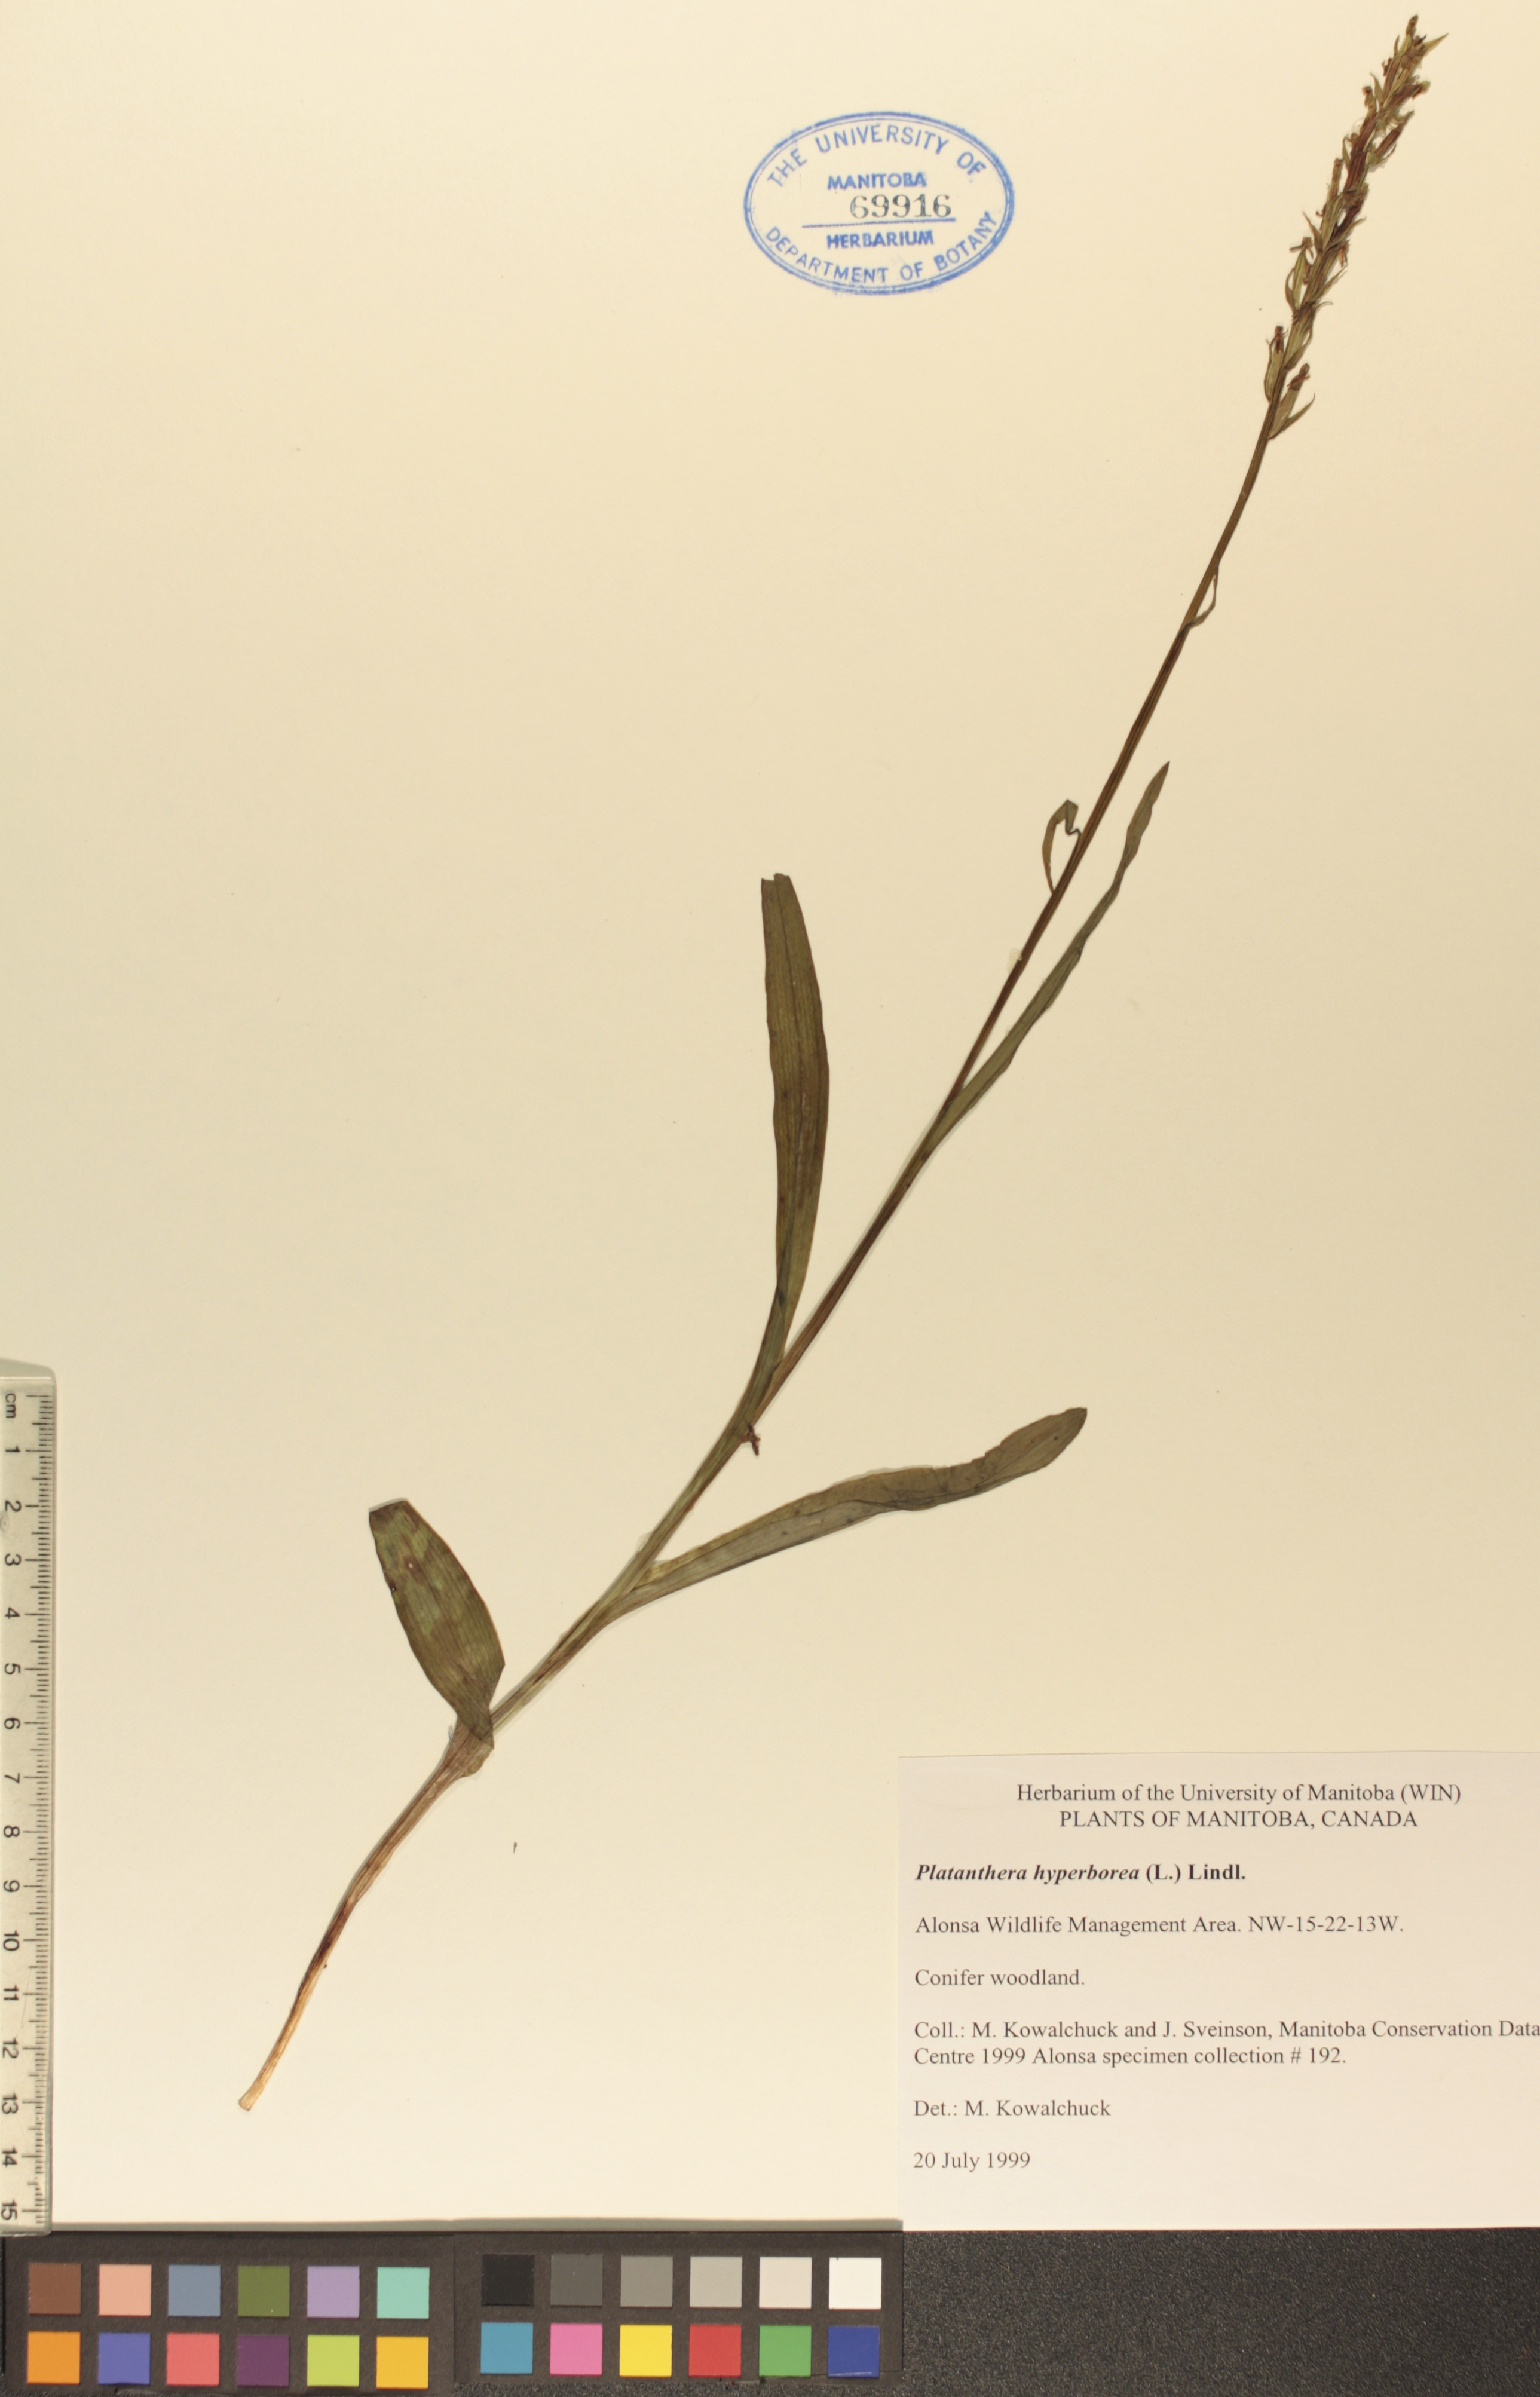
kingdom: Plantae
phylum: Tracheophyta
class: Liliopsida
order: Asparagales
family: Orchidaceae
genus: Platanthera
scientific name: Platanthera hyperborea
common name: Northern green orchid
